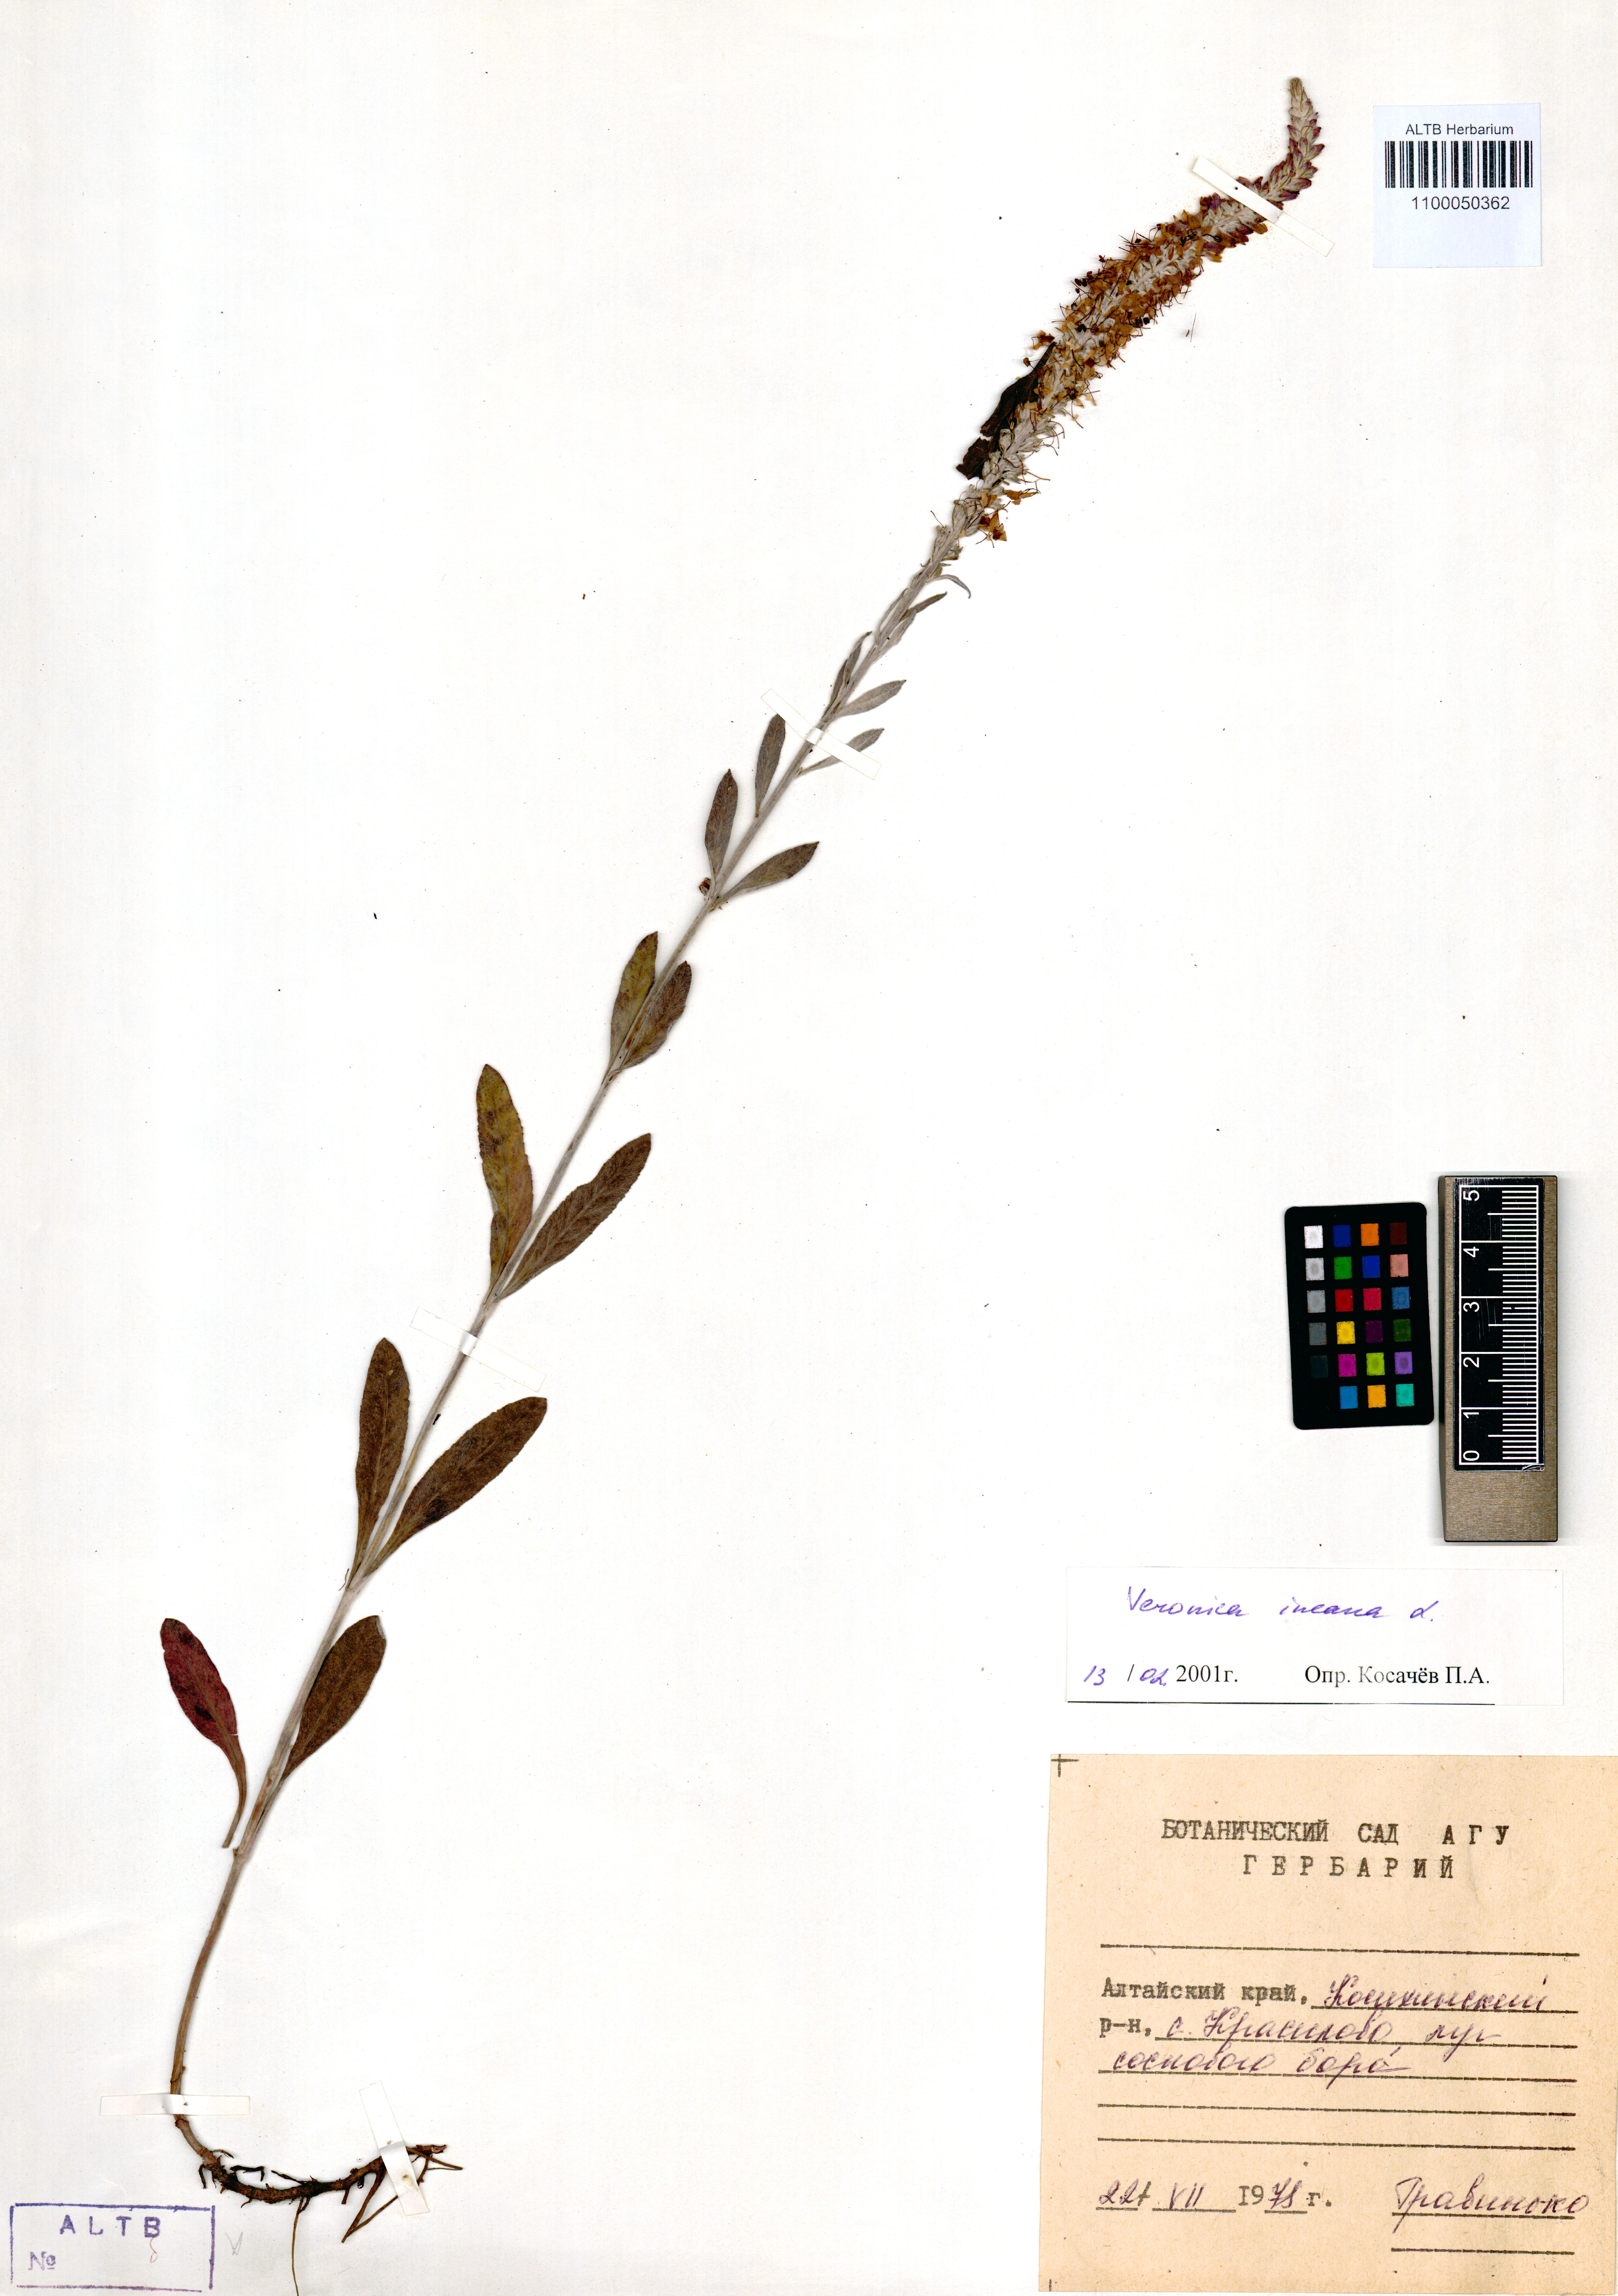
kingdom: Plantae
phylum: Tracheophyta
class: Magnoliopsida
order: Lamiales
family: Plantaginaceae
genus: Veronica
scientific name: Veronica incana
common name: Silver speedwell
